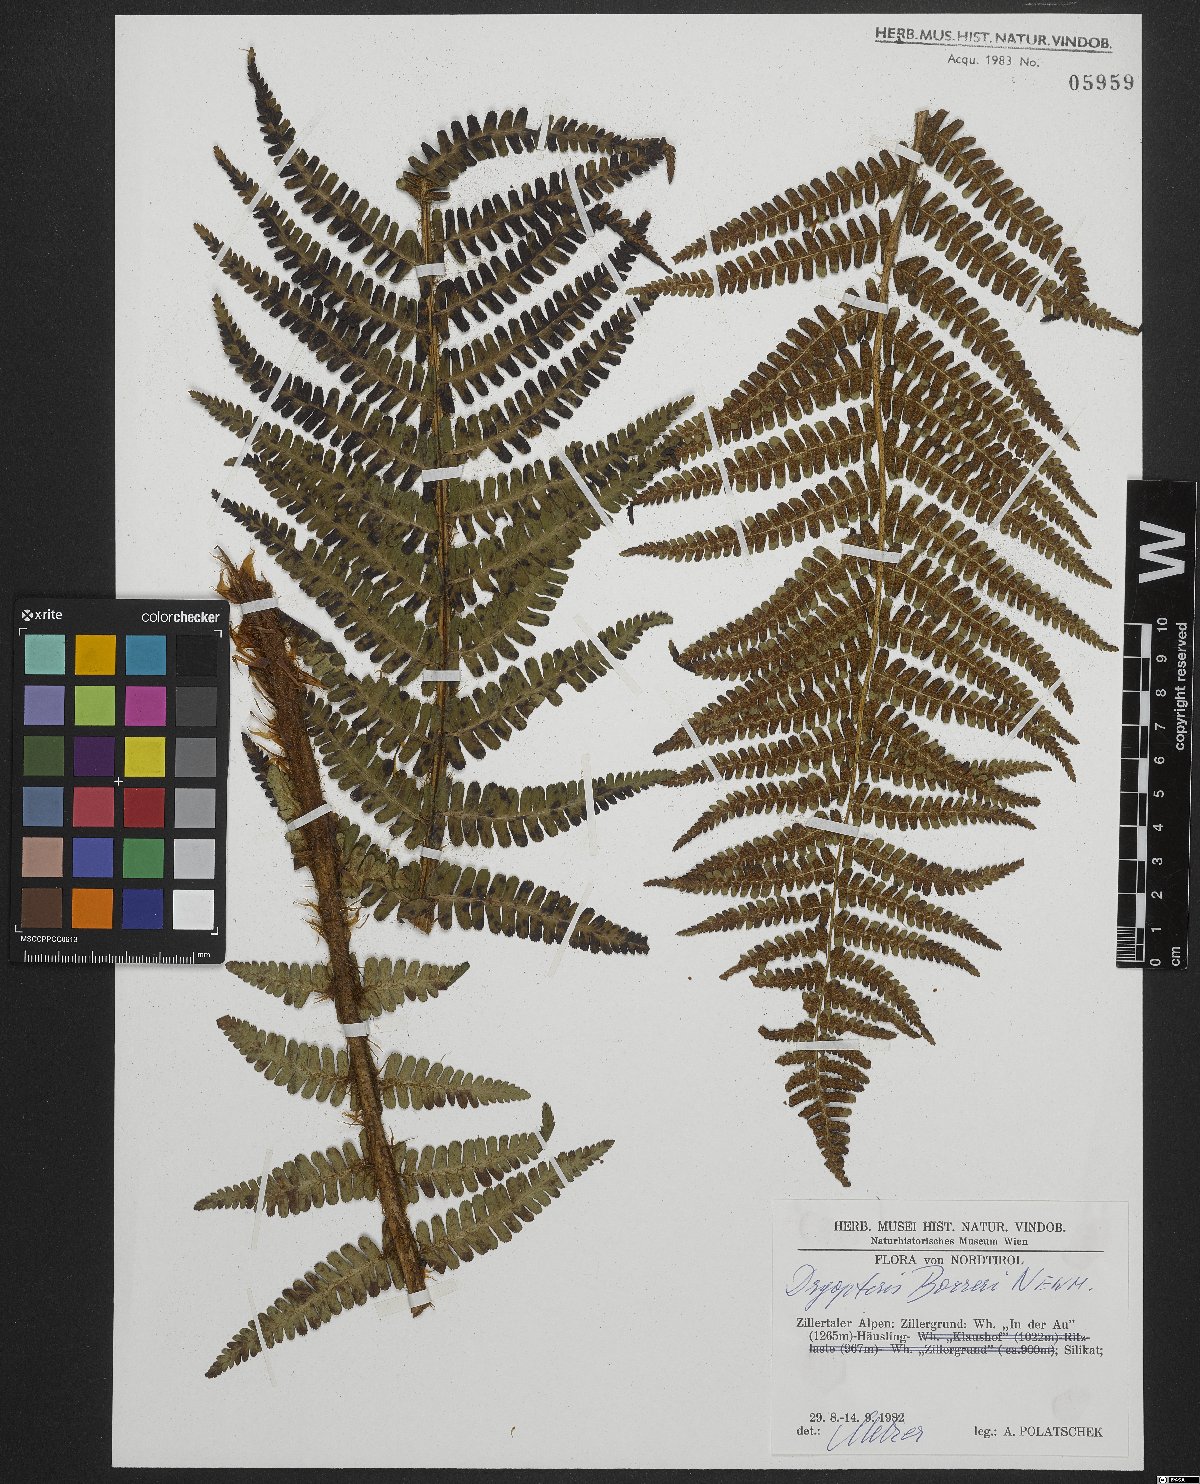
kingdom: Plantae
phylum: Tracheophyta
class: Polypodiopsida
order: Polypodiales
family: Dryopteridaceae
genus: Dryopteris
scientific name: Dryopteris cambrensis
